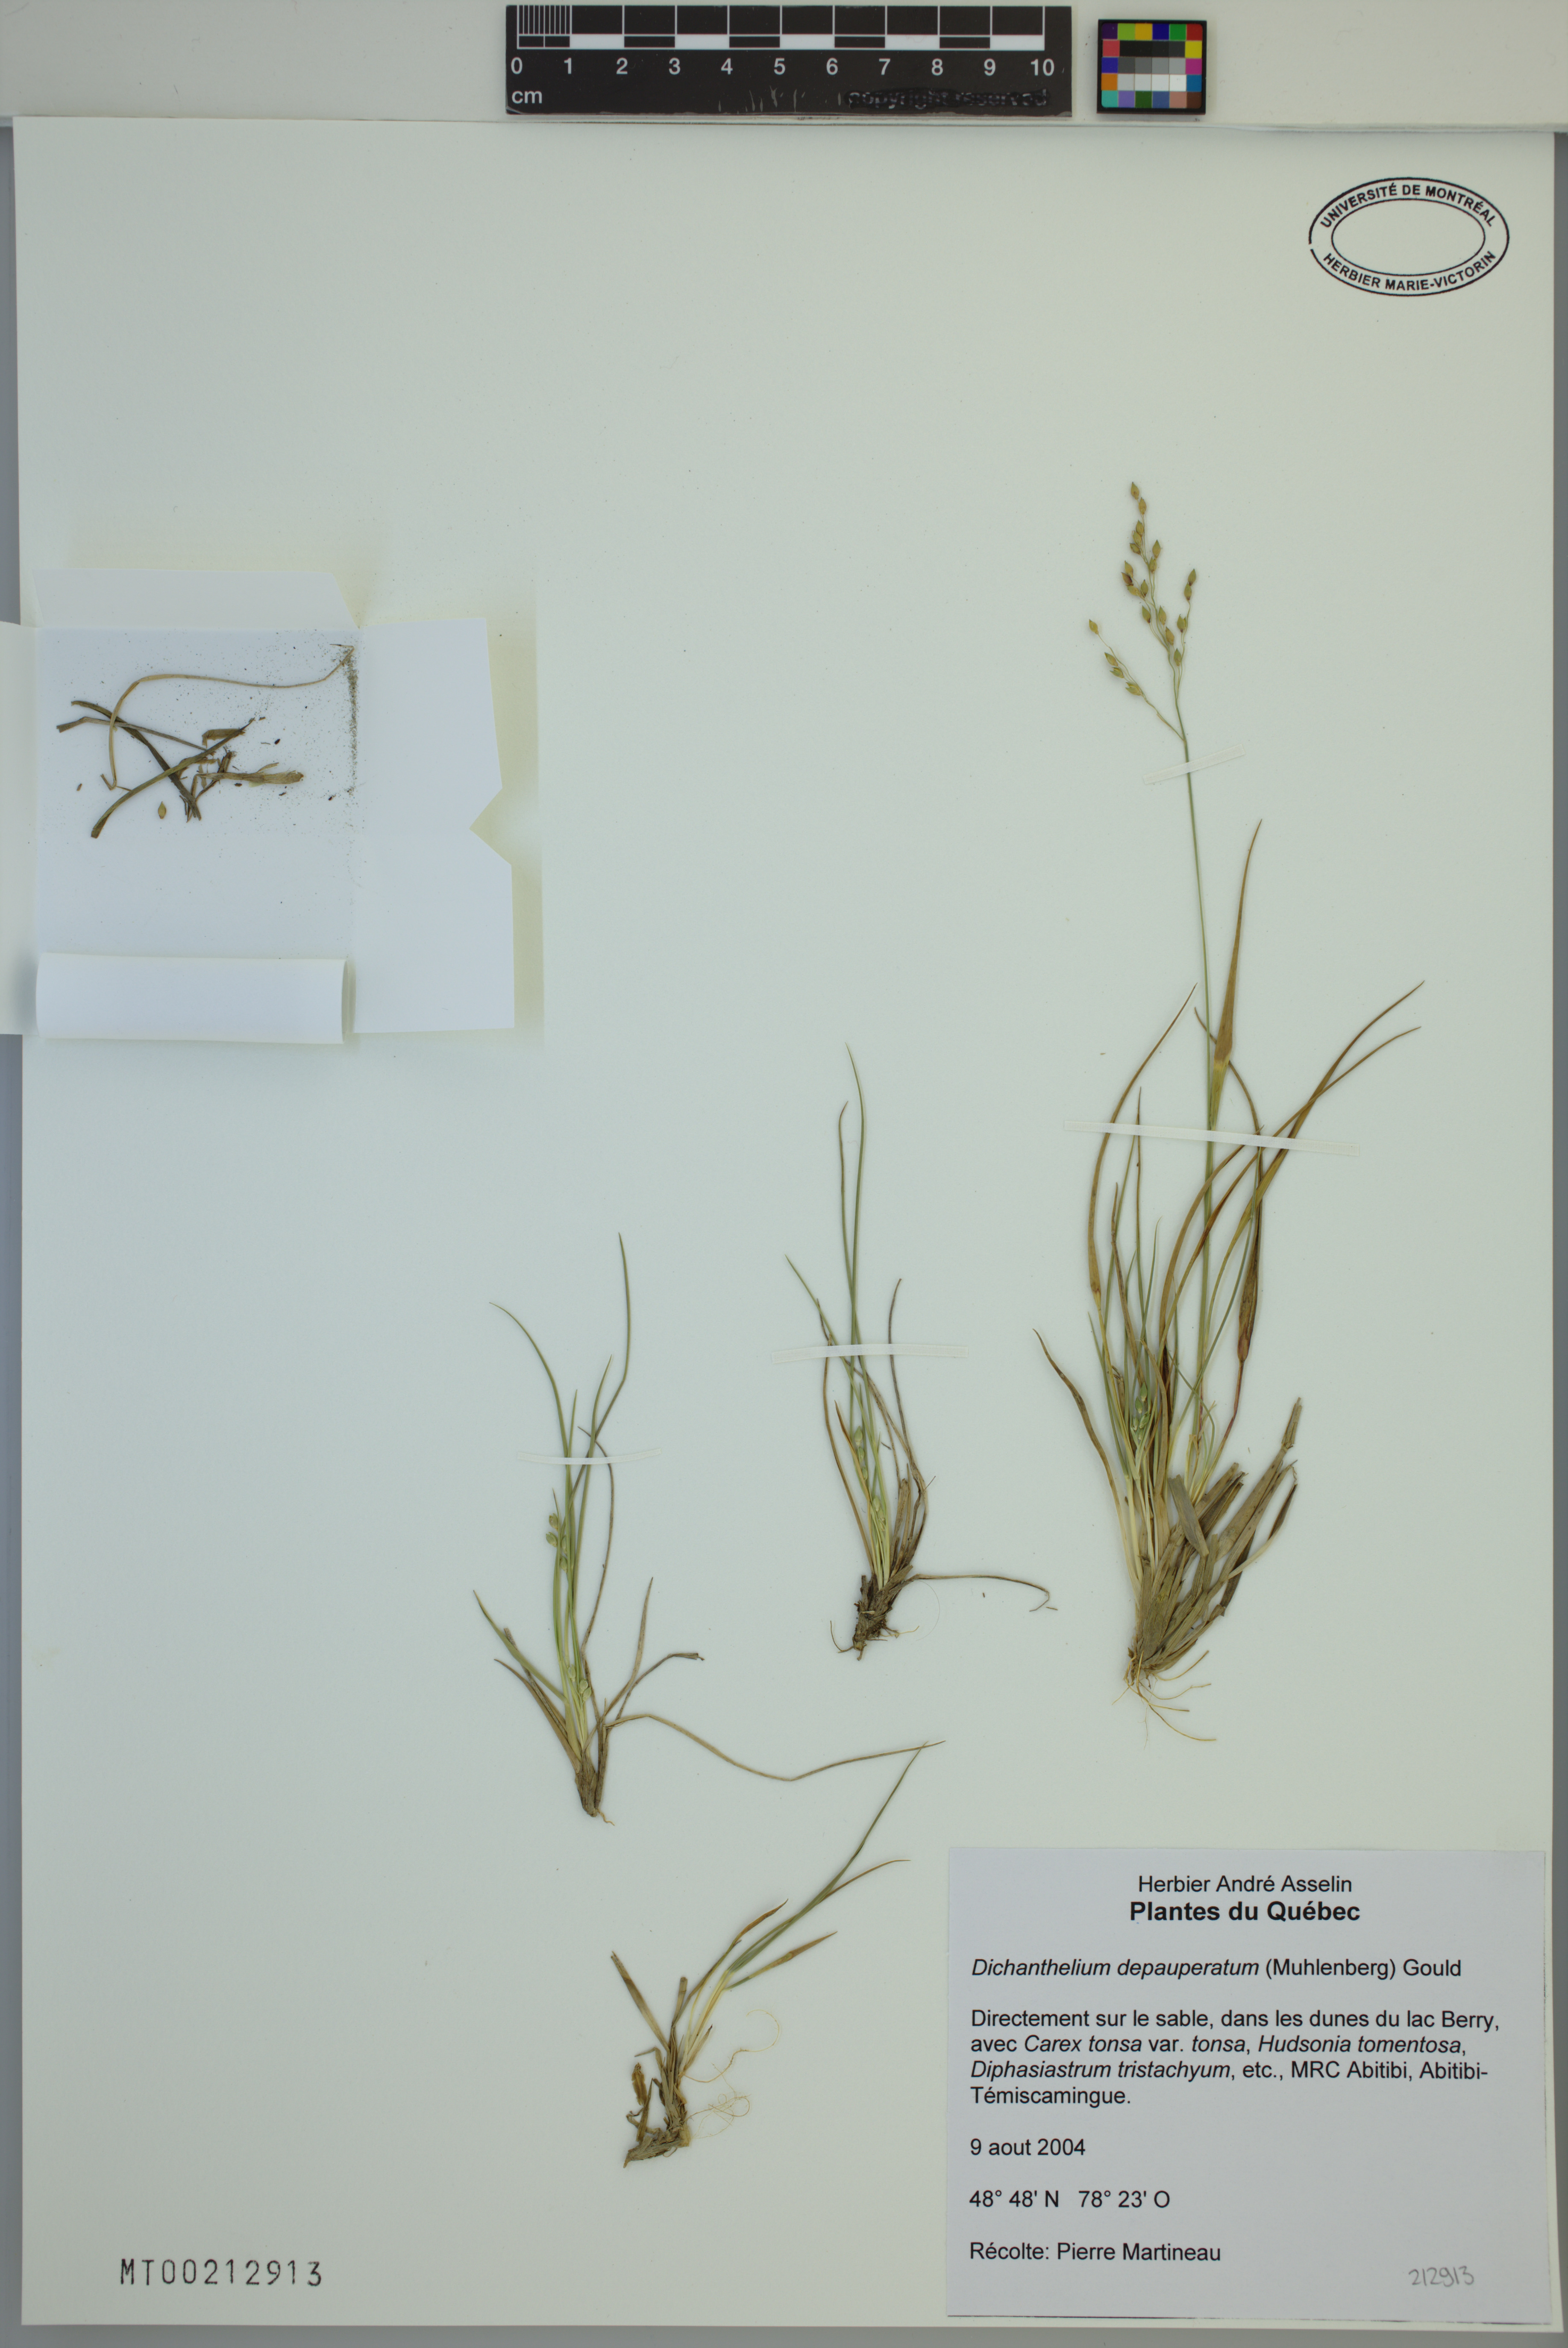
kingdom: Plantae
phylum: Tracheophyta
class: Liliopsida
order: Poales
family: Poaceae
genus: Dichanthelium
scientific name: Dichanthelium depauperatum
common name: Depauperate panicgrass
